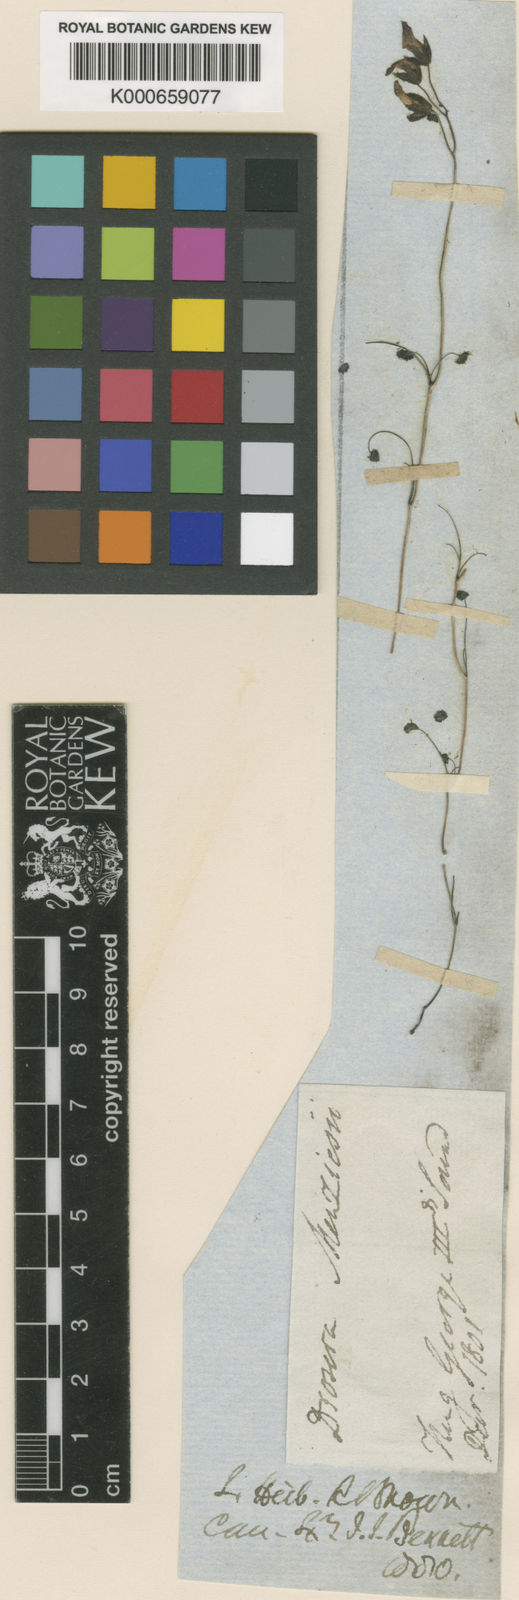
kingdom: Plantae
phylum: Tracheophyta
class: Magnoliopsida
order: Caryophyllales
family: Droseraceae
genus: Drosera
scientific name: Drosera
